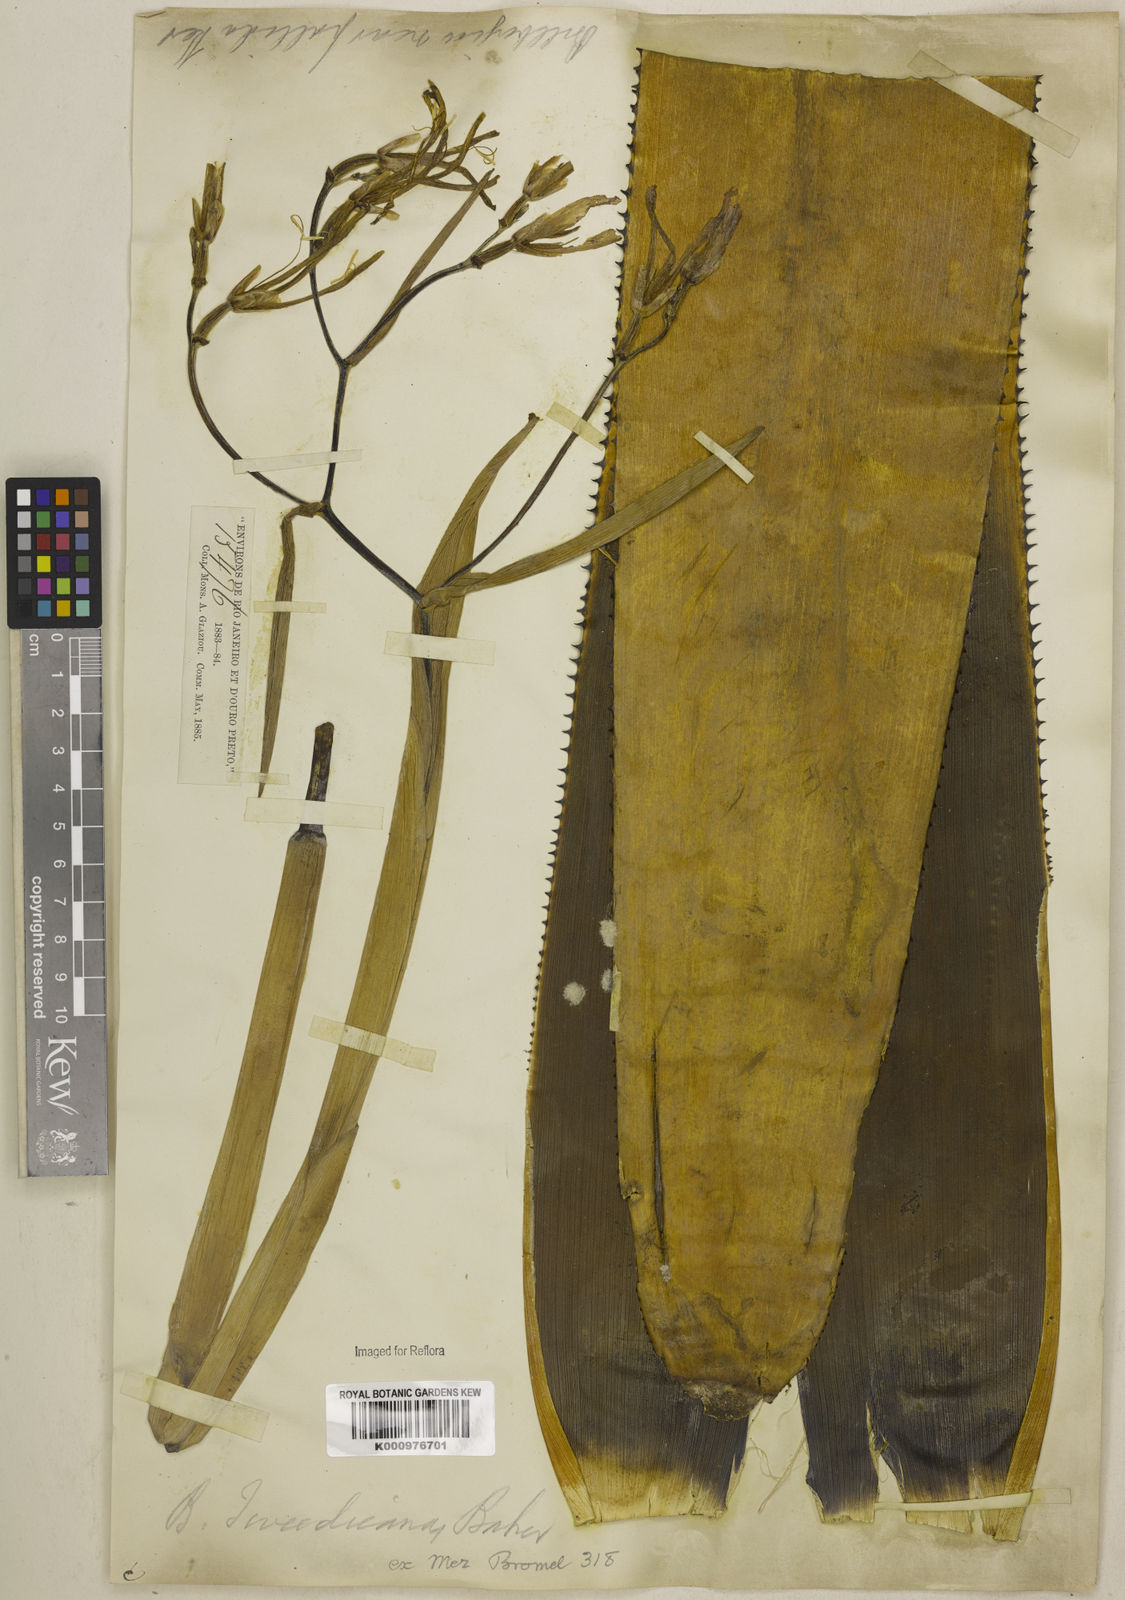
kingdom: Plantae
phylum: Tracheophyta
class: Liliopsida
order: Poales
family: Bromeliaceae
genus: Billbergia
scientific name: Billbergia tweedieana
